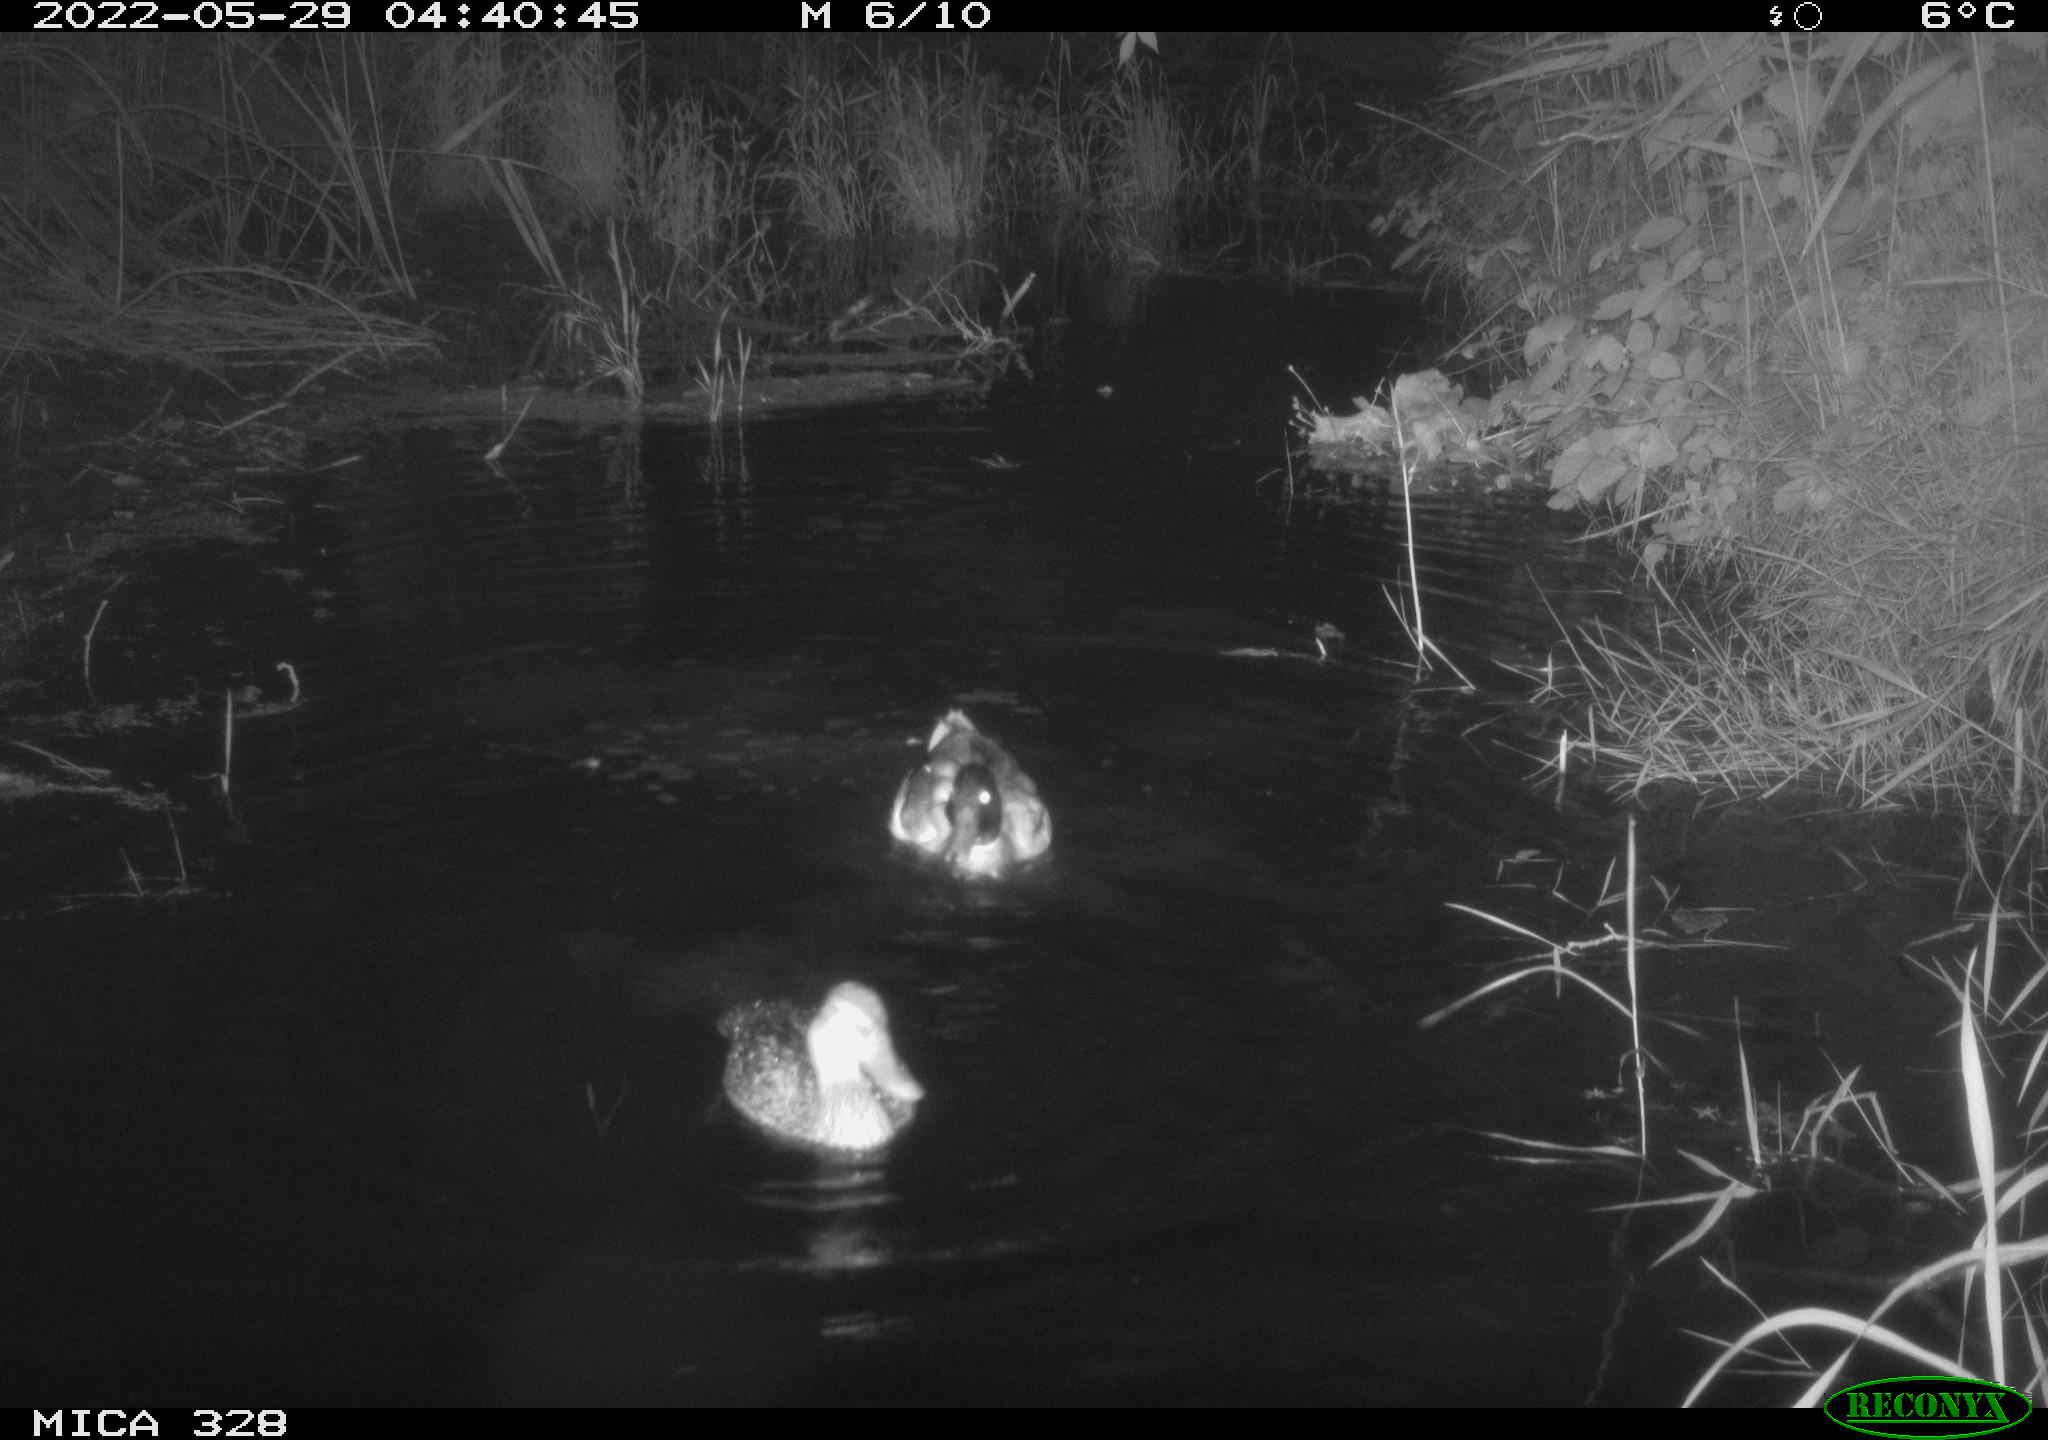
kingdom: Animalia
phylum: Chordata
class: Aves
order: Anseriformes
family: Anatidae
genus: Anas
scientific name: Anas platyrhynchos
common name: Mallard
